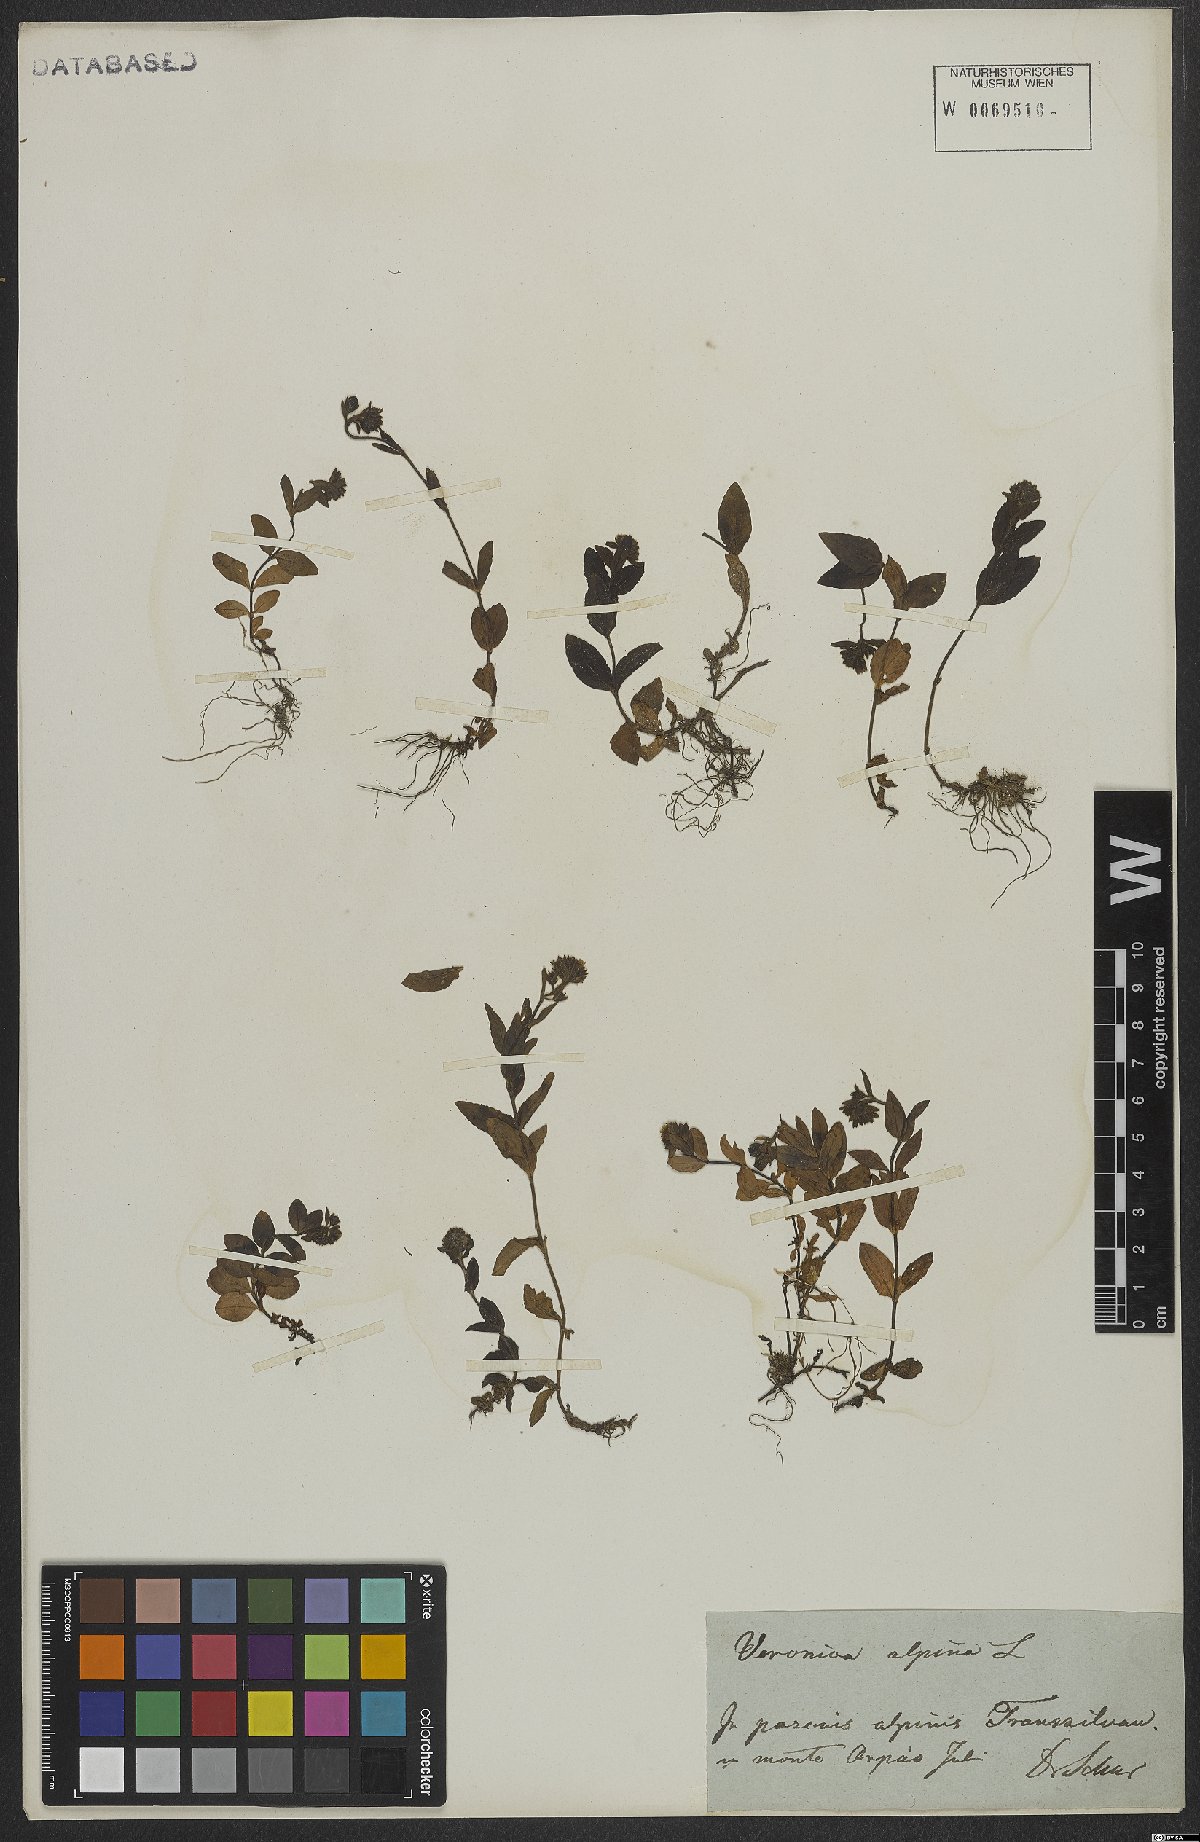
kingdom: Plantae
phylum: Tracheophyta
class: Magnoliopsida
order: Lamiales
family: Plantaginaceae
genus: Veronica
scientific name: Veronica alpina
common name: Alpine speedwell
